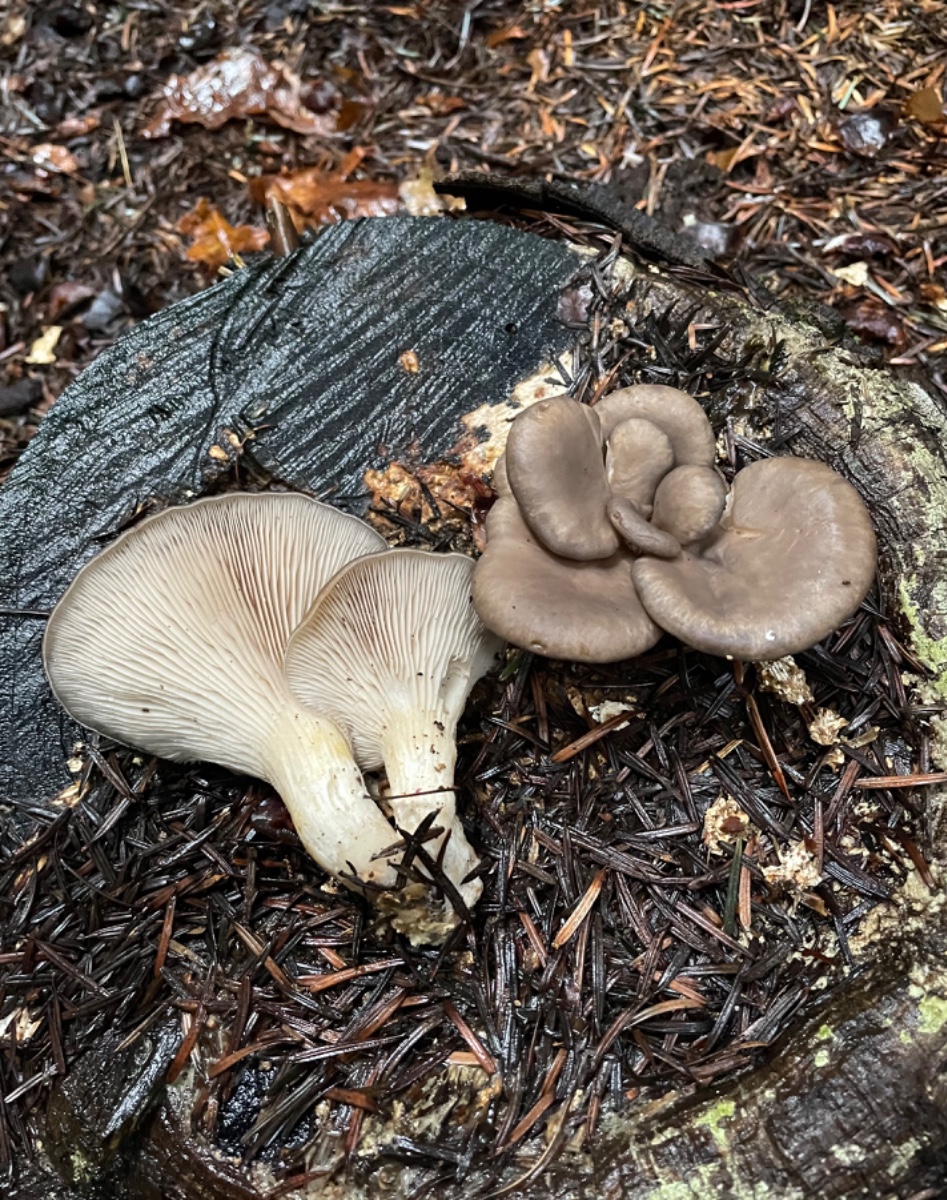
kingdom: Fungi
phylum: Basidiomycota
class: Agaricomycetes
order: Agaricales
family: Pleurotaceae
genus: Pleurotus
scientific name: Pleurotus ostreatus
